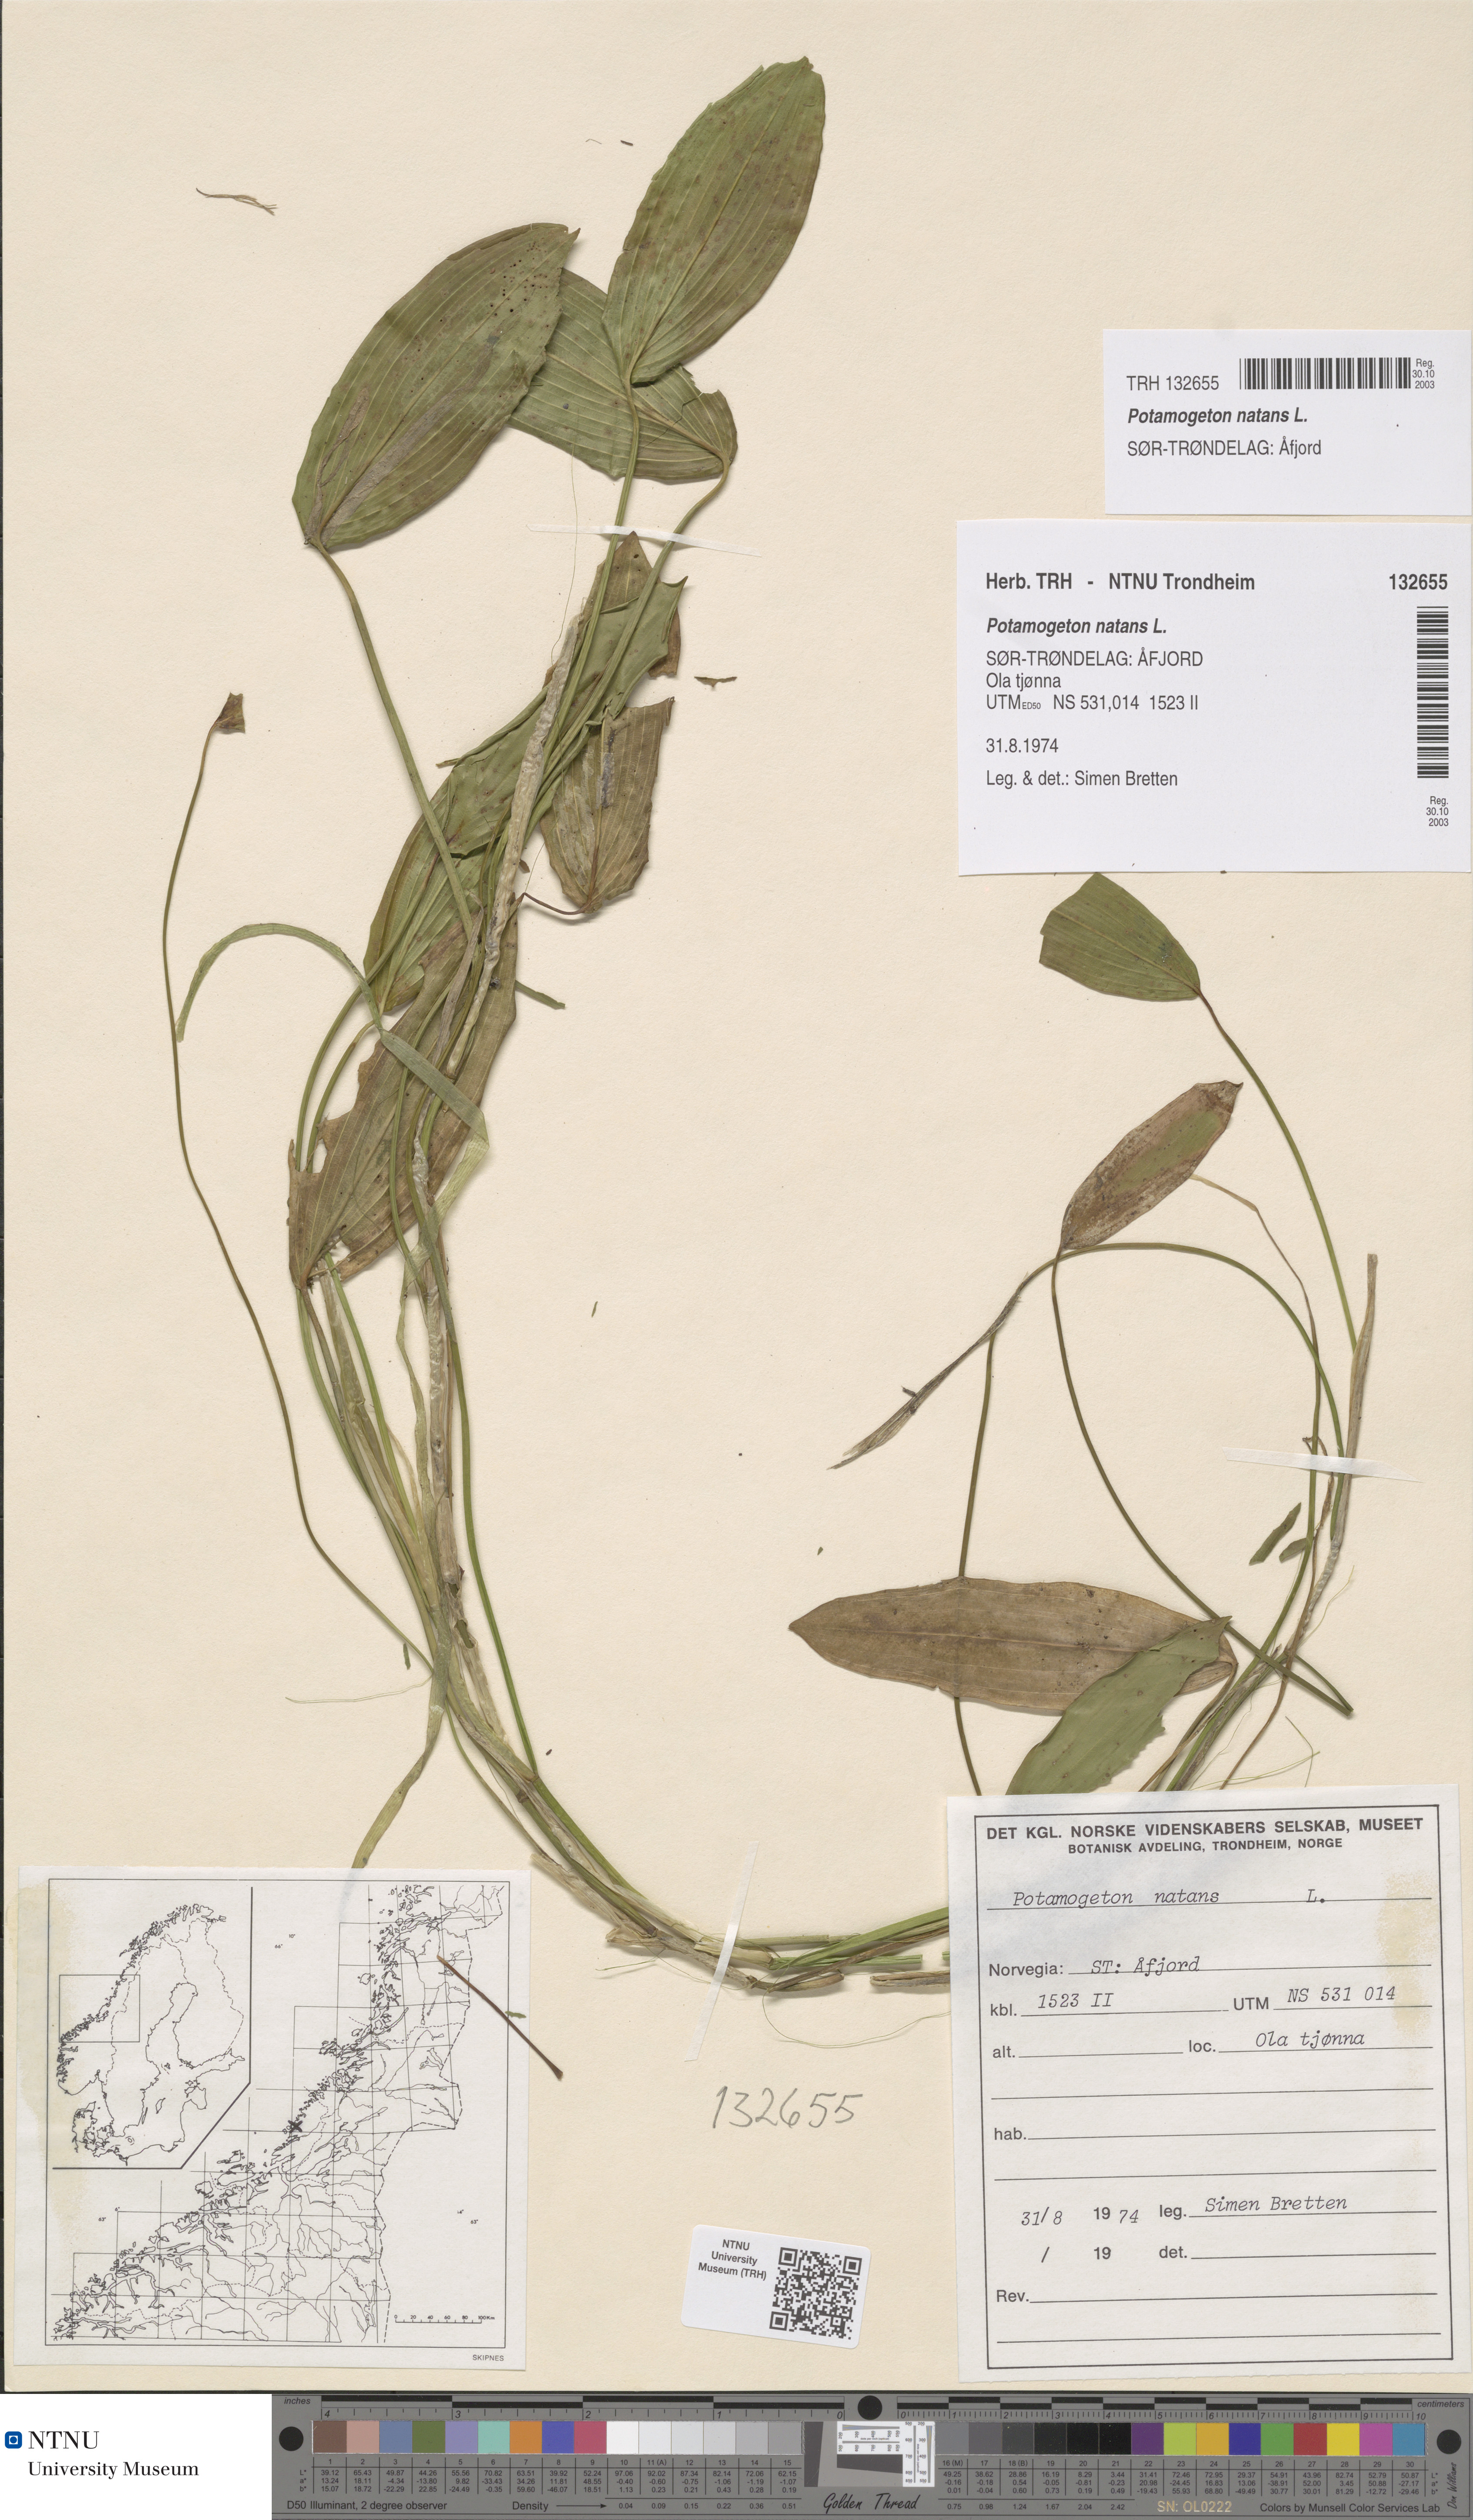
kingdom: Plantae
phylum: Tracheophyta
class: Liliopsida
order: Alismatales
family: Potamogetonaceae
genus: Potamogeton
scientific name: Potamogeton natans
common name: Broad-leaved pondweed
